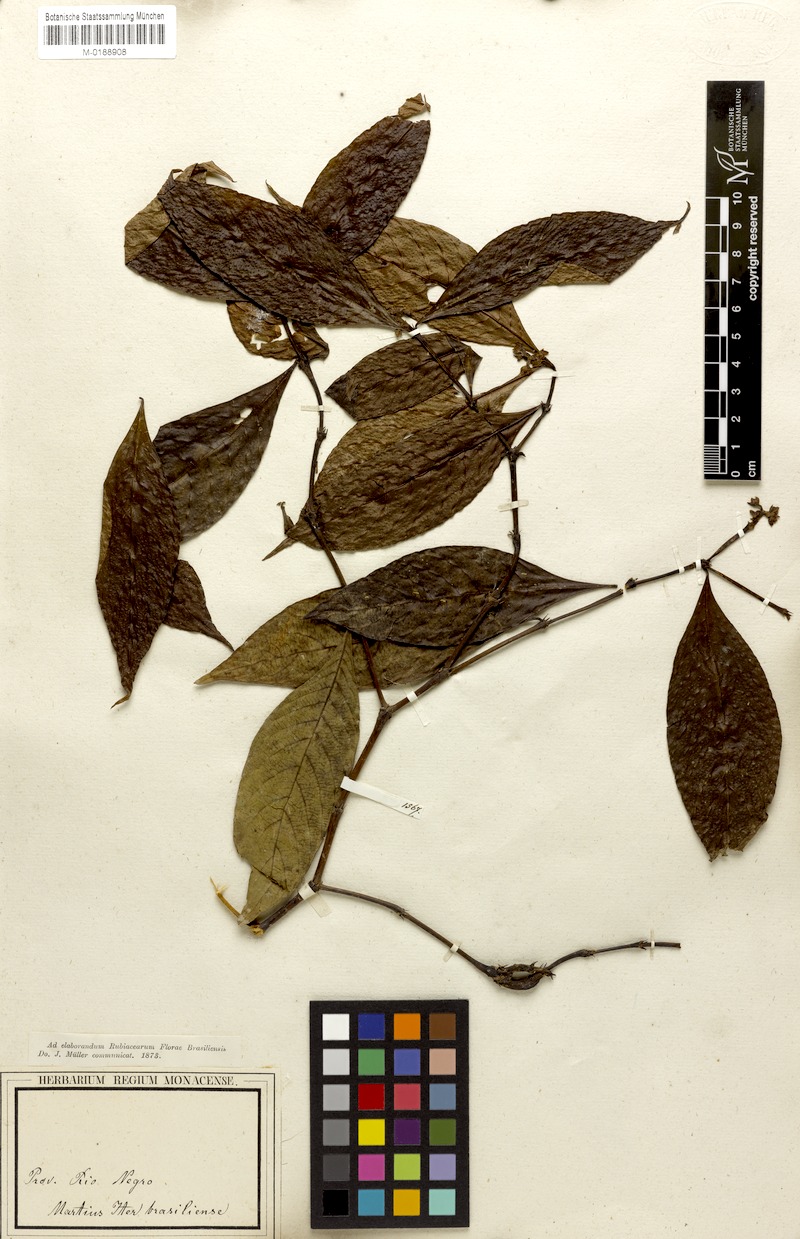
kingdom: Plantae
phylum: Tracheophyta
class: Magnoliopsida
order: Gentianales
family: Rubiaceae
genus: Palicourea
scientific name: Palicourea gracilenta
